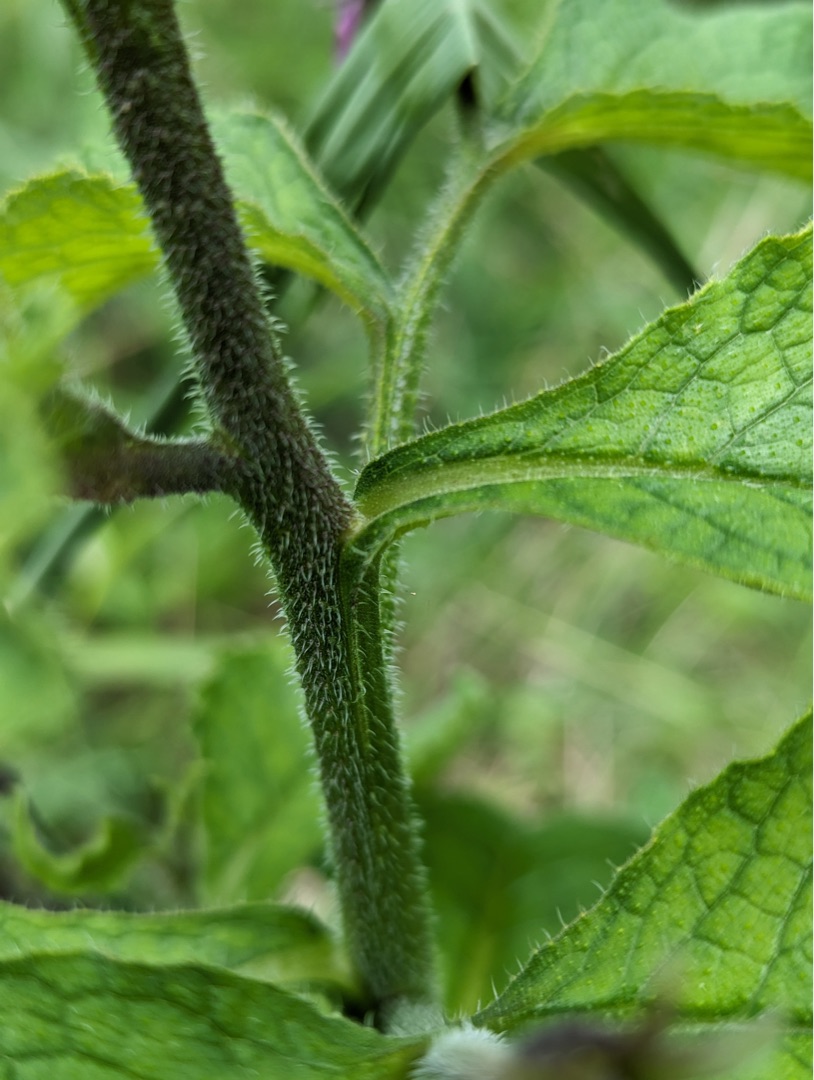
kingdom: Plantae
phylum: Tracheophyta
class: Magnoliopsida
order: Boraginales
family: Boraginaceae
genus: Symphytum
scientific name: Symphytum uplandicum
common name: Foder-kulsukker
